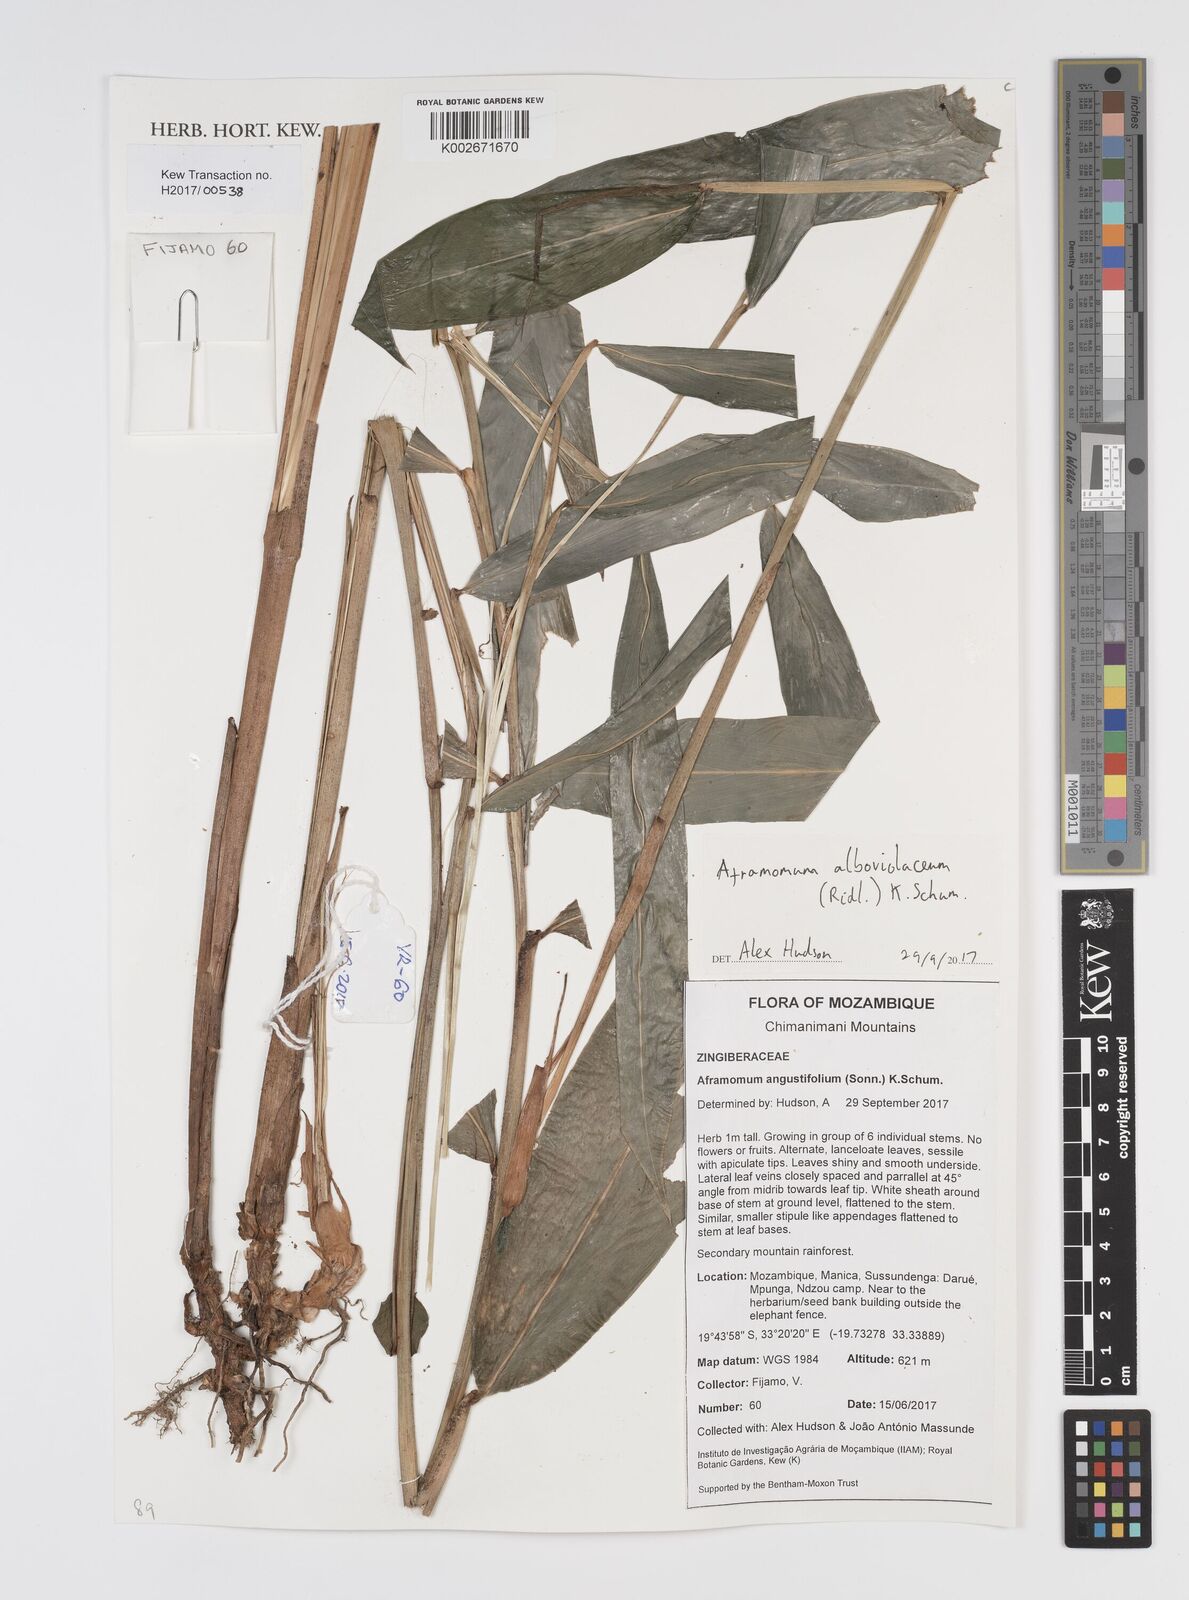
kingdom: Plantae
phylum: Tracheophyta
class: Liliopsida
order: Zingiberales
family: Zingiberaceae
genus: Aframomum
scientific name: Aframomum alboviolaceum
